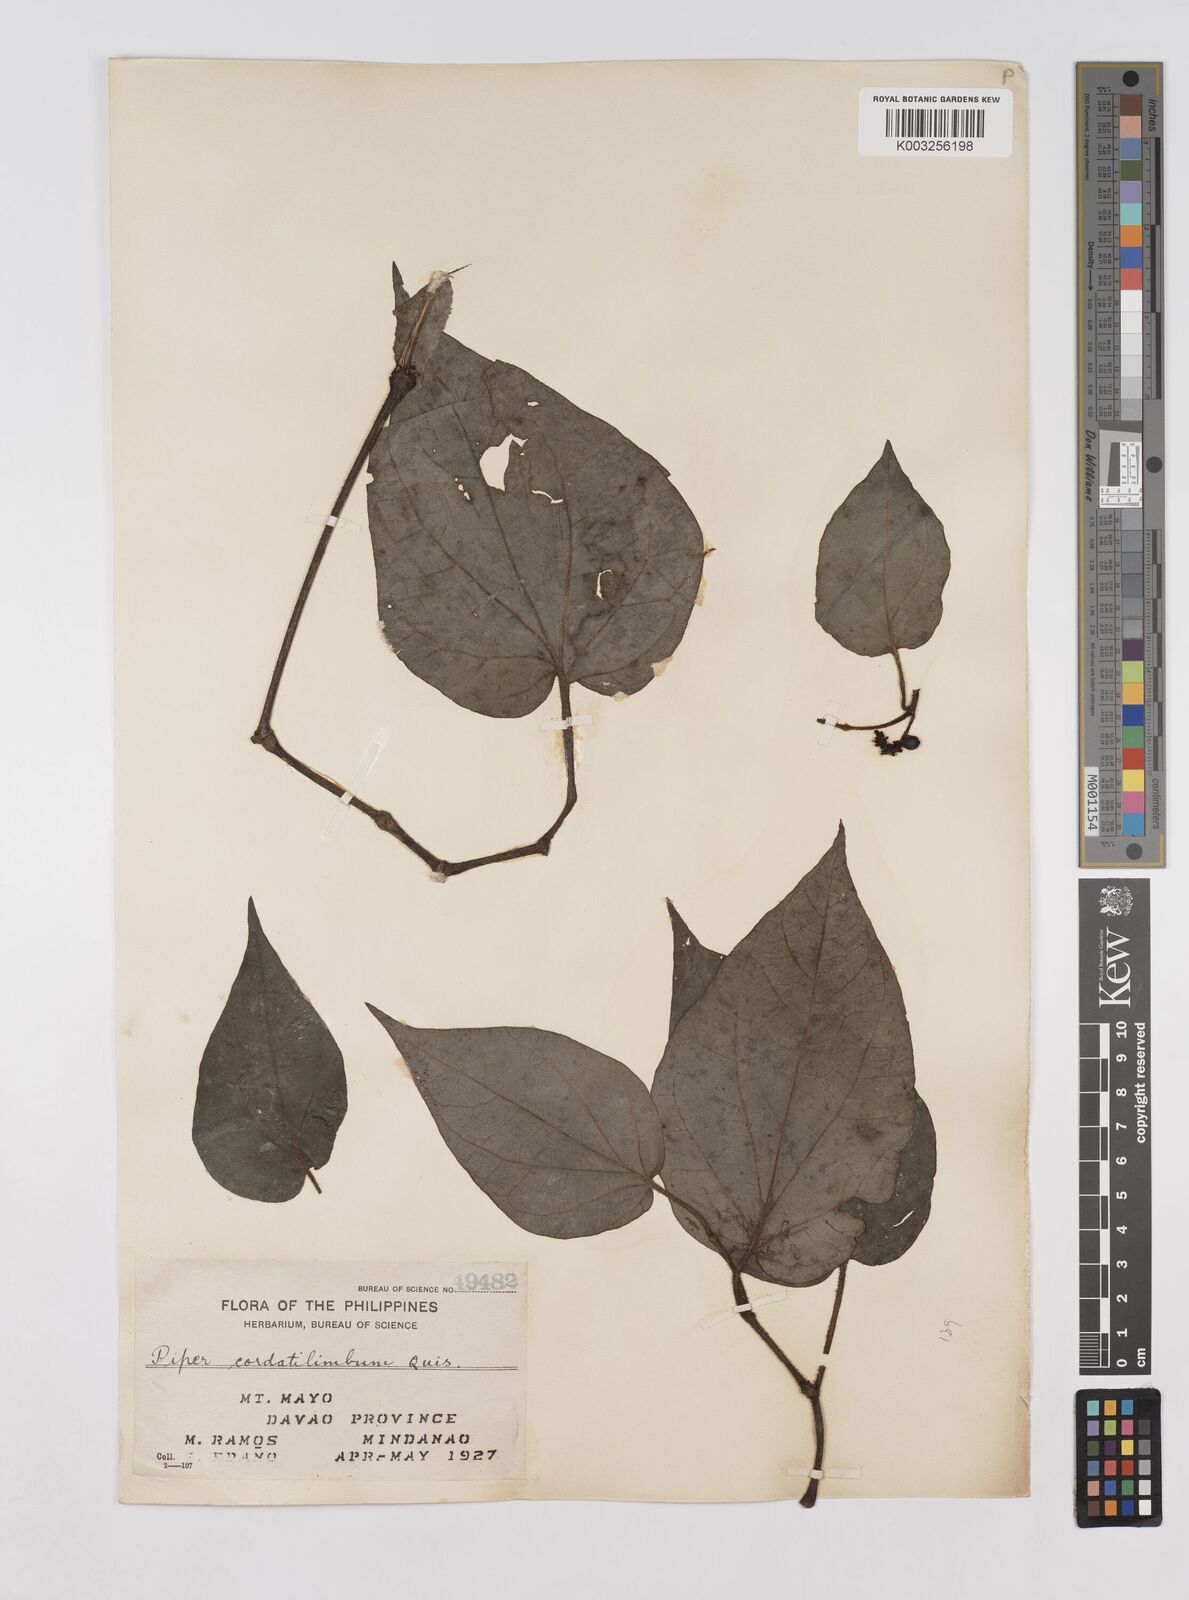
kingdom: Plantae
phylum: Tracheophyta
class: Magnoliopsida
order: Piperales
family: Piperaceae
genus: Piper
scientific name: Piper cordatilimbum
